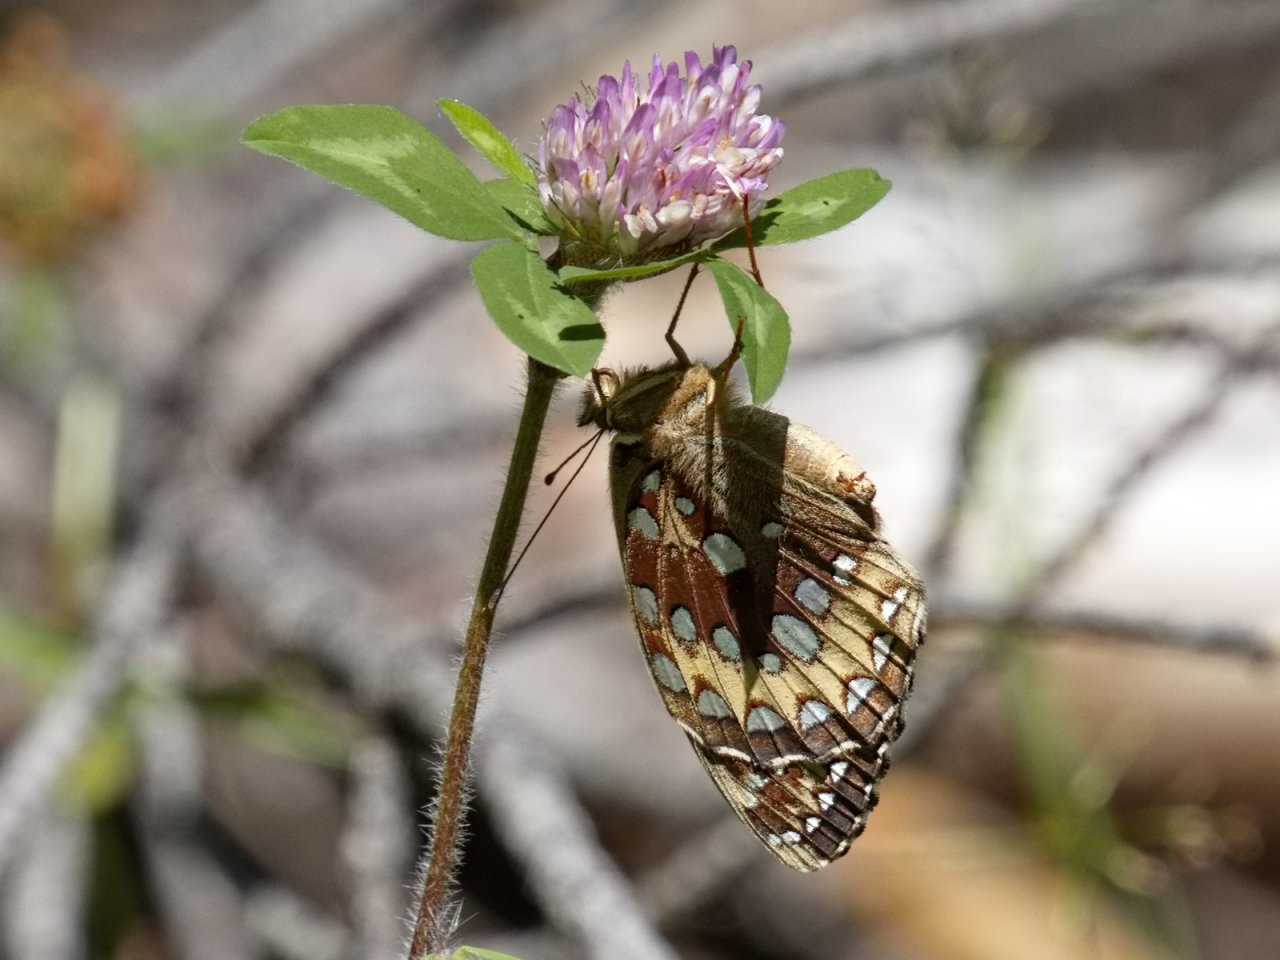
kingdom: Animalia
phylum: Arthropoda
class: Insecta
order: Lepidoptera
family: Nymphalidae
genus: Speyeria
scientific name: Speyeria cybele
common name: Great Spangled Fritillary
